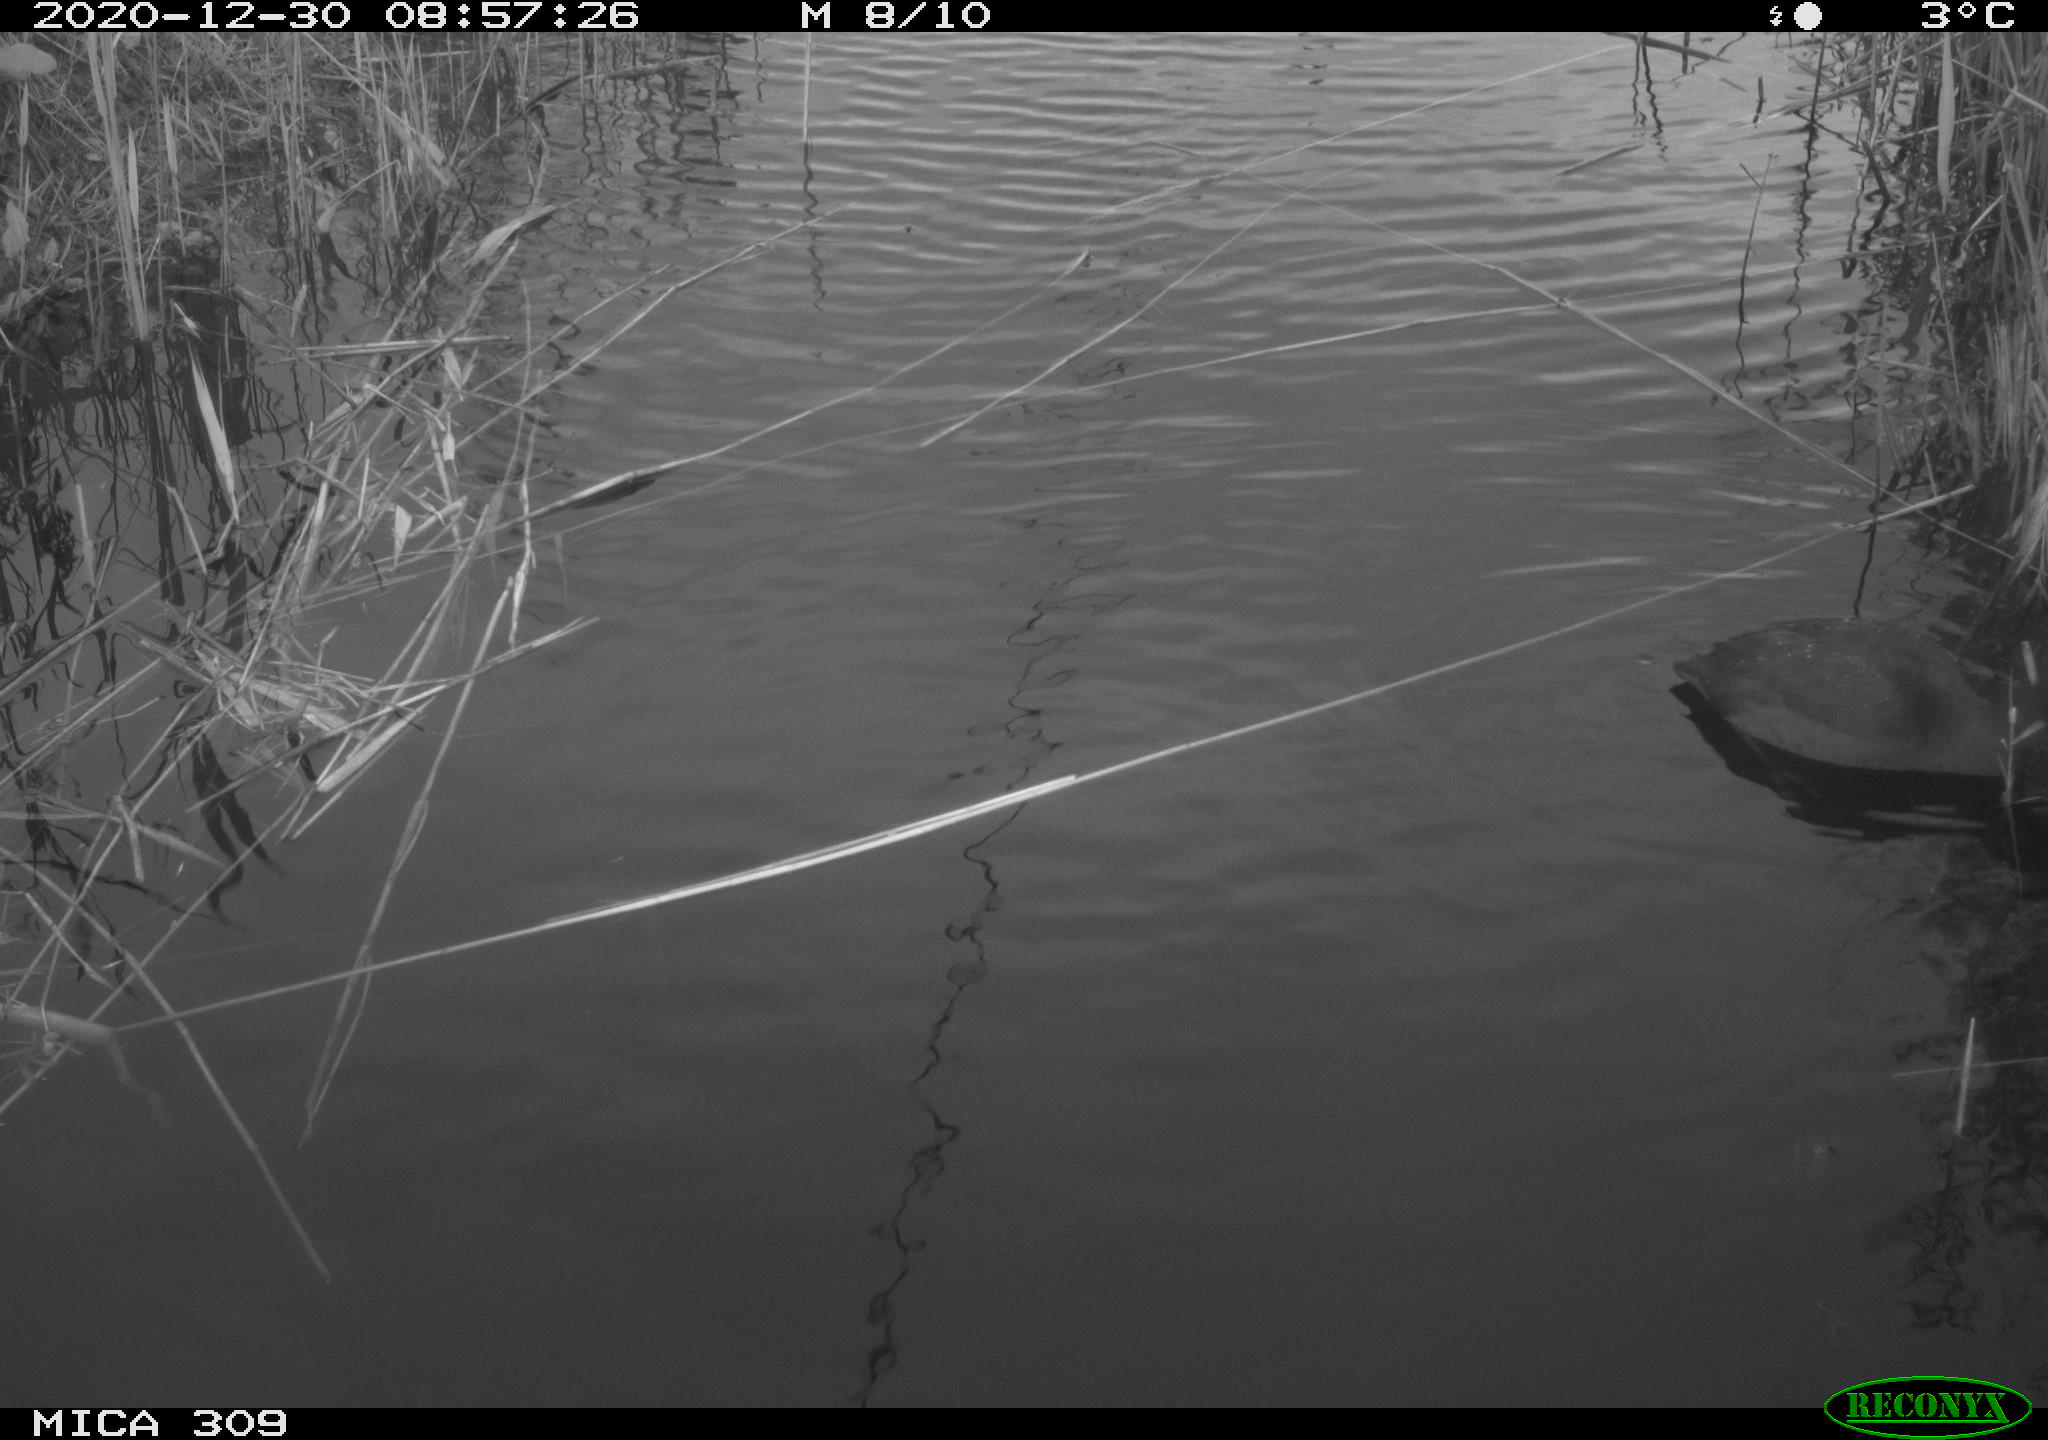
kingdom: Animalia
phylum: Chordata
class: Aves
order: Gruiformes
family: Rallidae
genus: Fulica
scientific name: Fulica atra
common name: Eurasian coot
